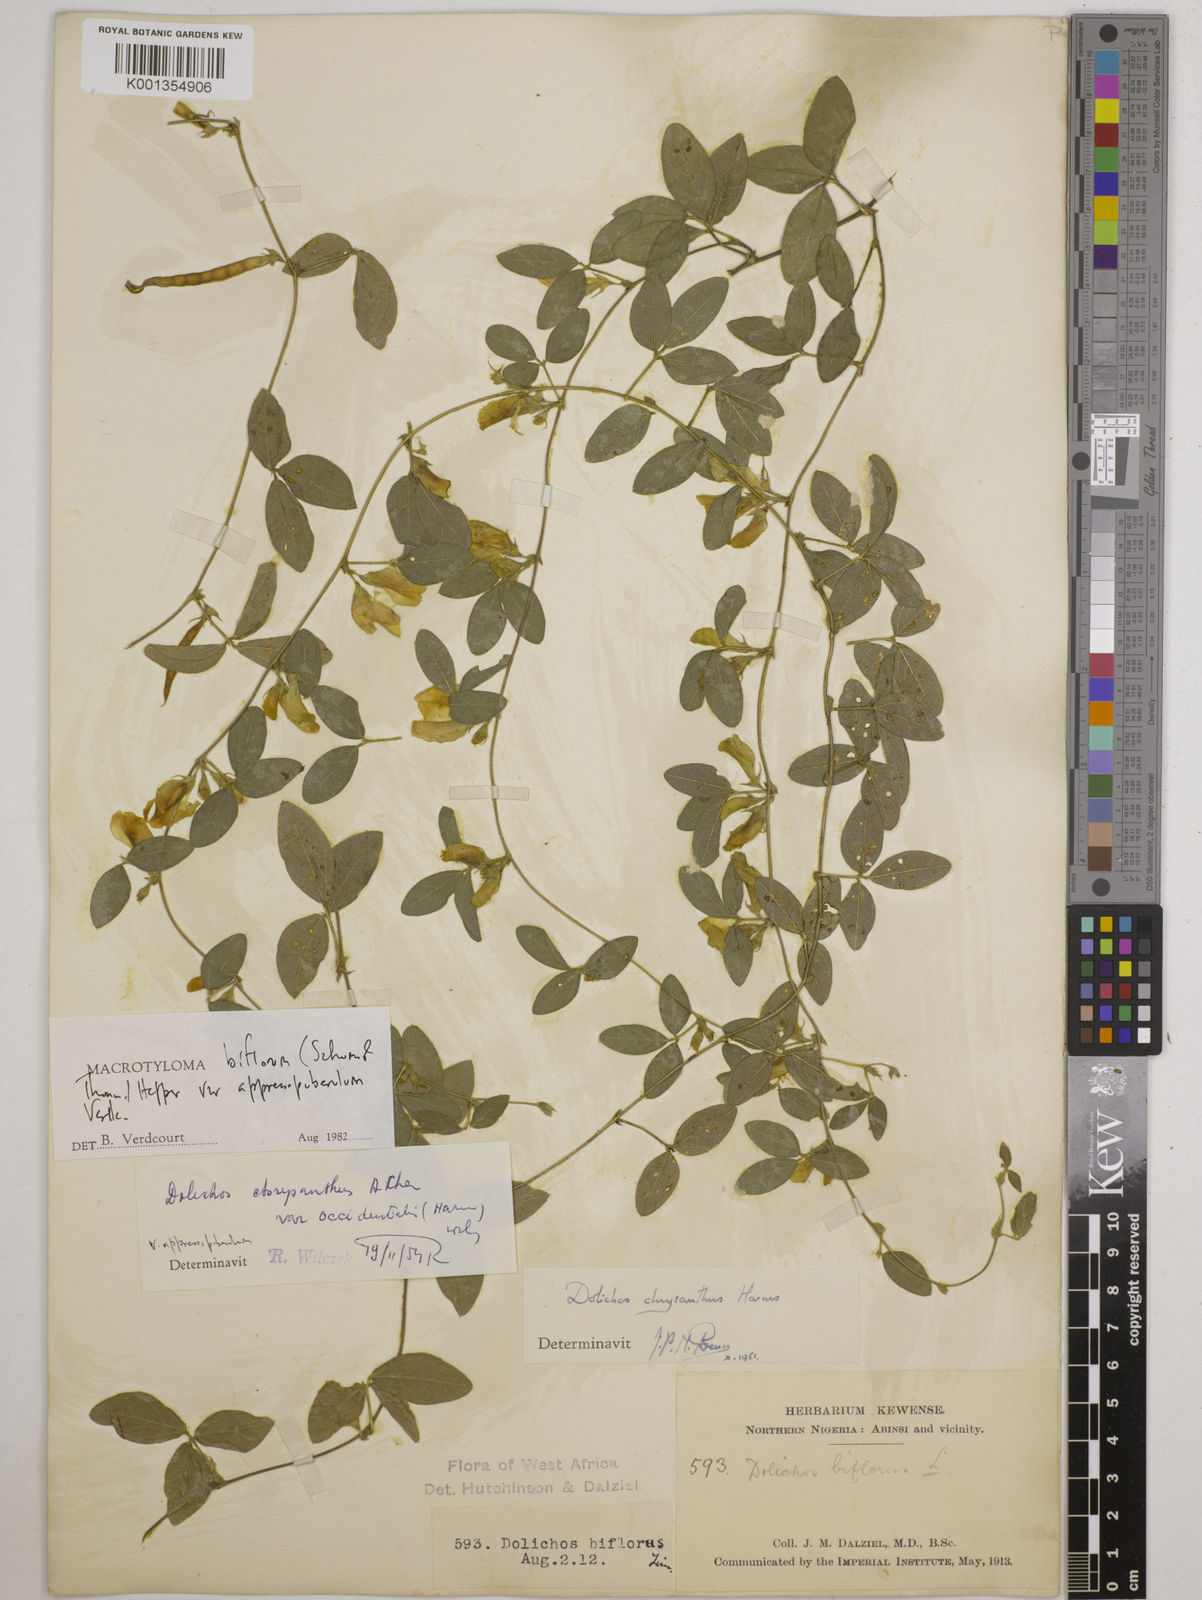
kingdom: Plantae
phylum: Tracheophyta
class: Magnoliopsida
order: Fabales
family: Fabaceae
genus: Macrotyloma
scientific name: Macrotyloma biflorum
